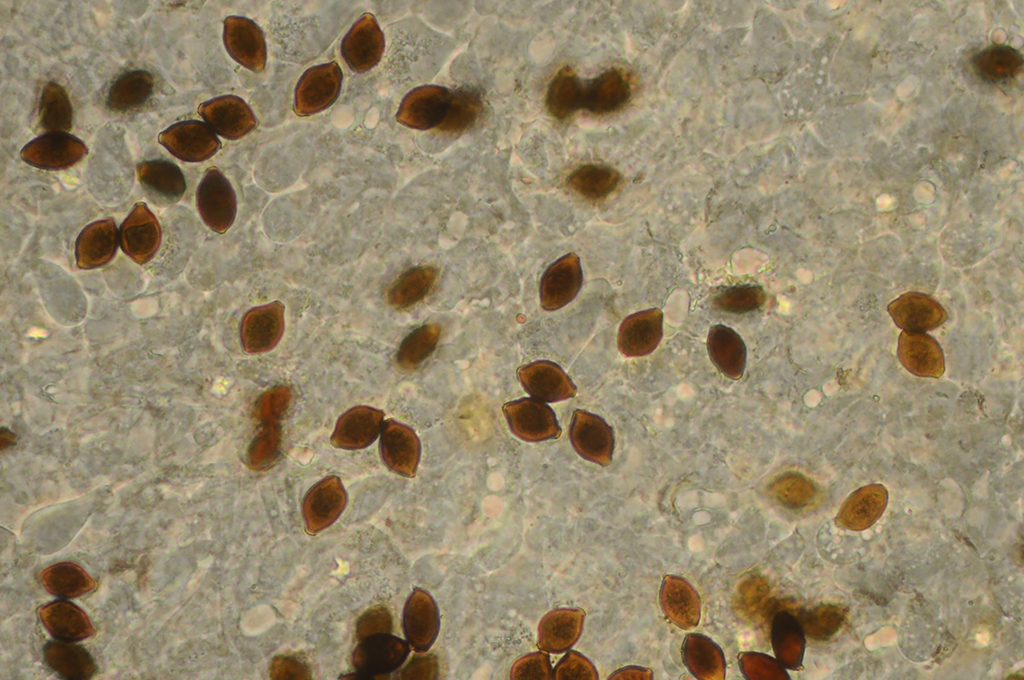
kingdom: Fungi
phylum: Basidiomycota
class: Agaricomycetes
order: Agaricales
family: Bolbitiaceae
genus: Panaeolus
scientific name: Panaeolus papilionaceus
